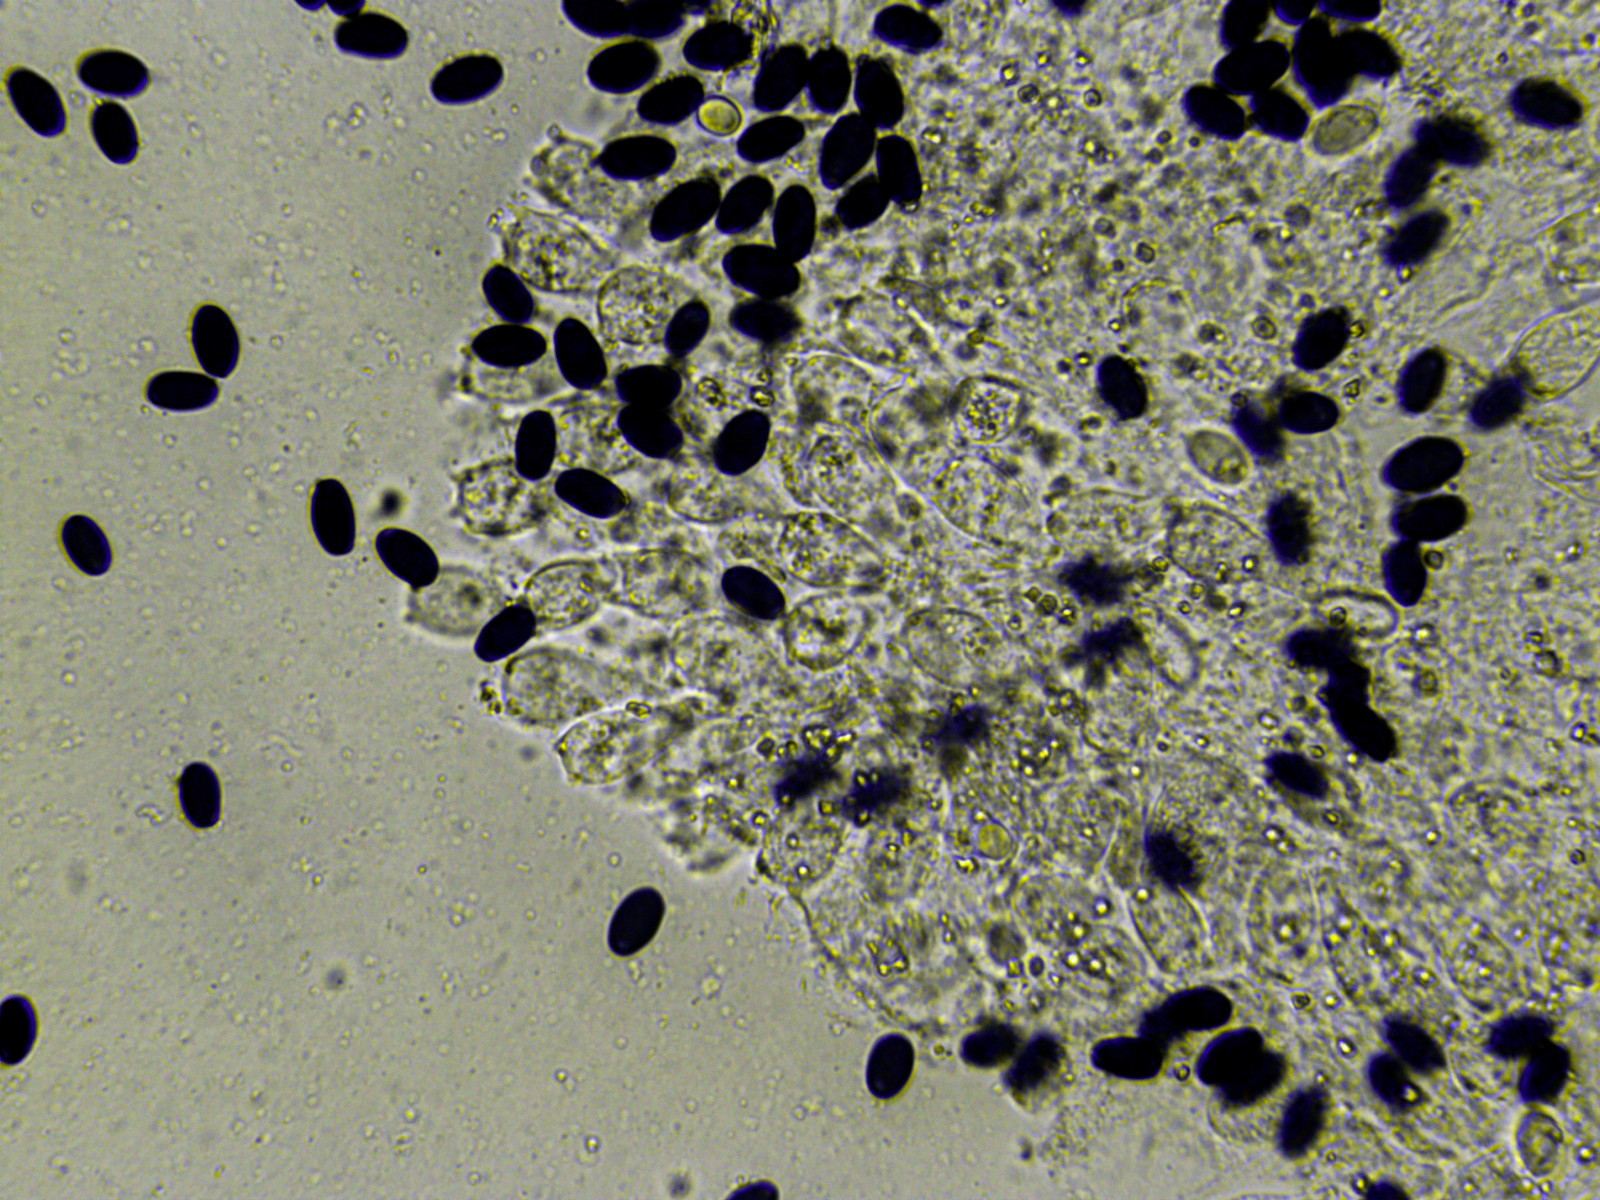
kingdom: Fungi
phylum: Basidiomycota
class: Agaricomycetes
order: Agaricales
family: Psathyrellaceae
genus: Coprinellus
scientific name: Coprinellus flocculosus
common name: fnugget blækhat
